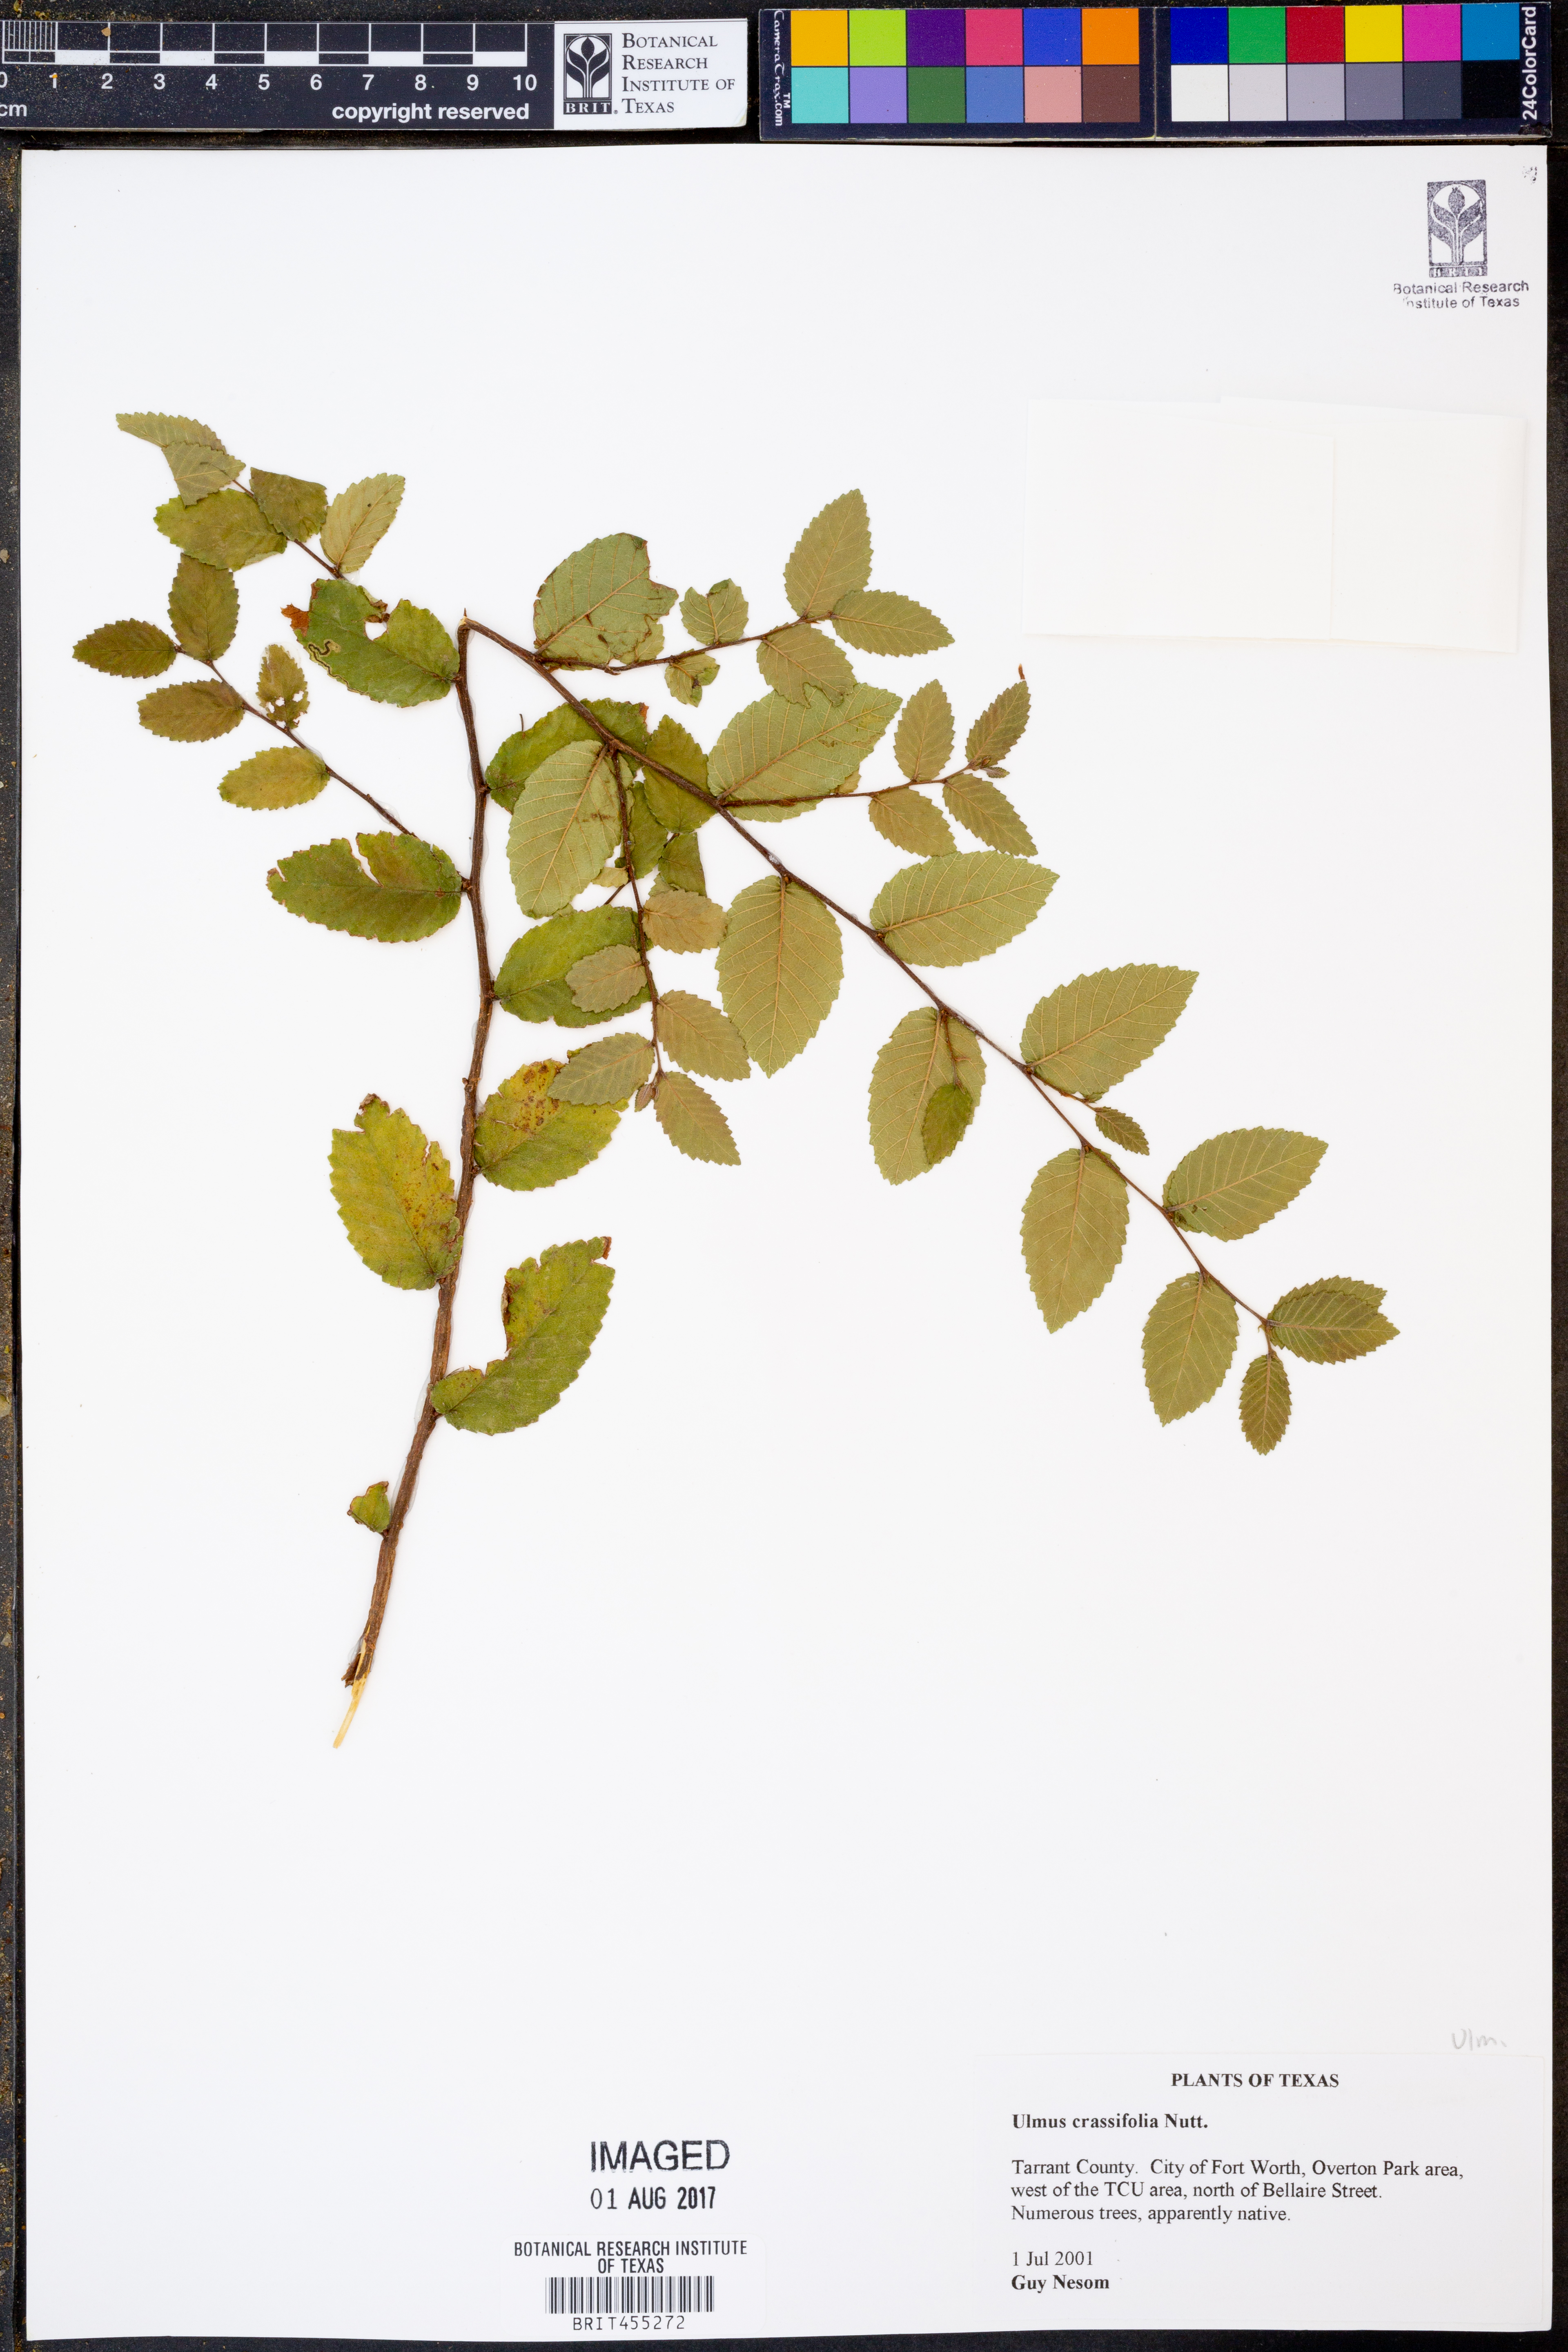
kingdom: Plantae
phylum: Tracheophyta
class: Magnoliopsida
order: Rosales
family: Ulmaceae
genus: Ulmus
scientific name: Ulmus crassifolia
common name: Basket elm
